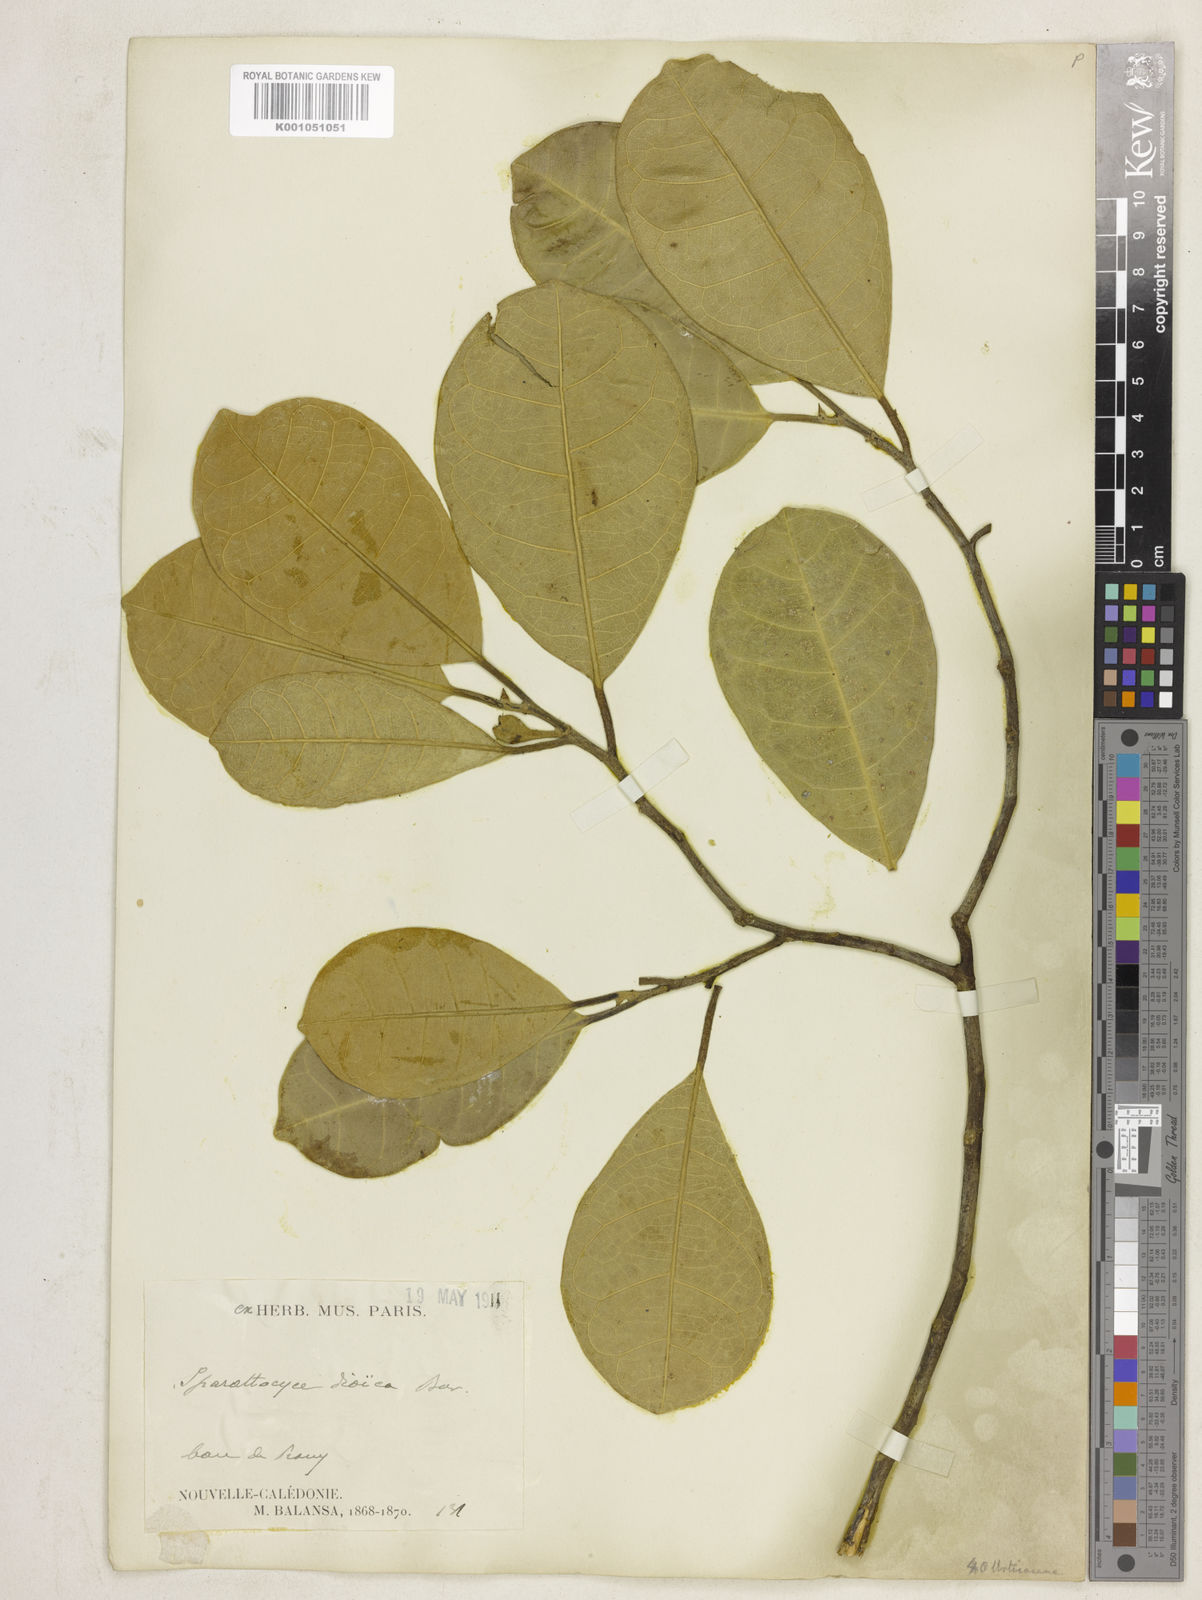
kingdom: Plantae
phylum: Tracheophyta
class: Magnoliopsida
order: Rosales
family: Moraceae
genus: Sparattosyce
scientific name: Sparattosyce dioica
